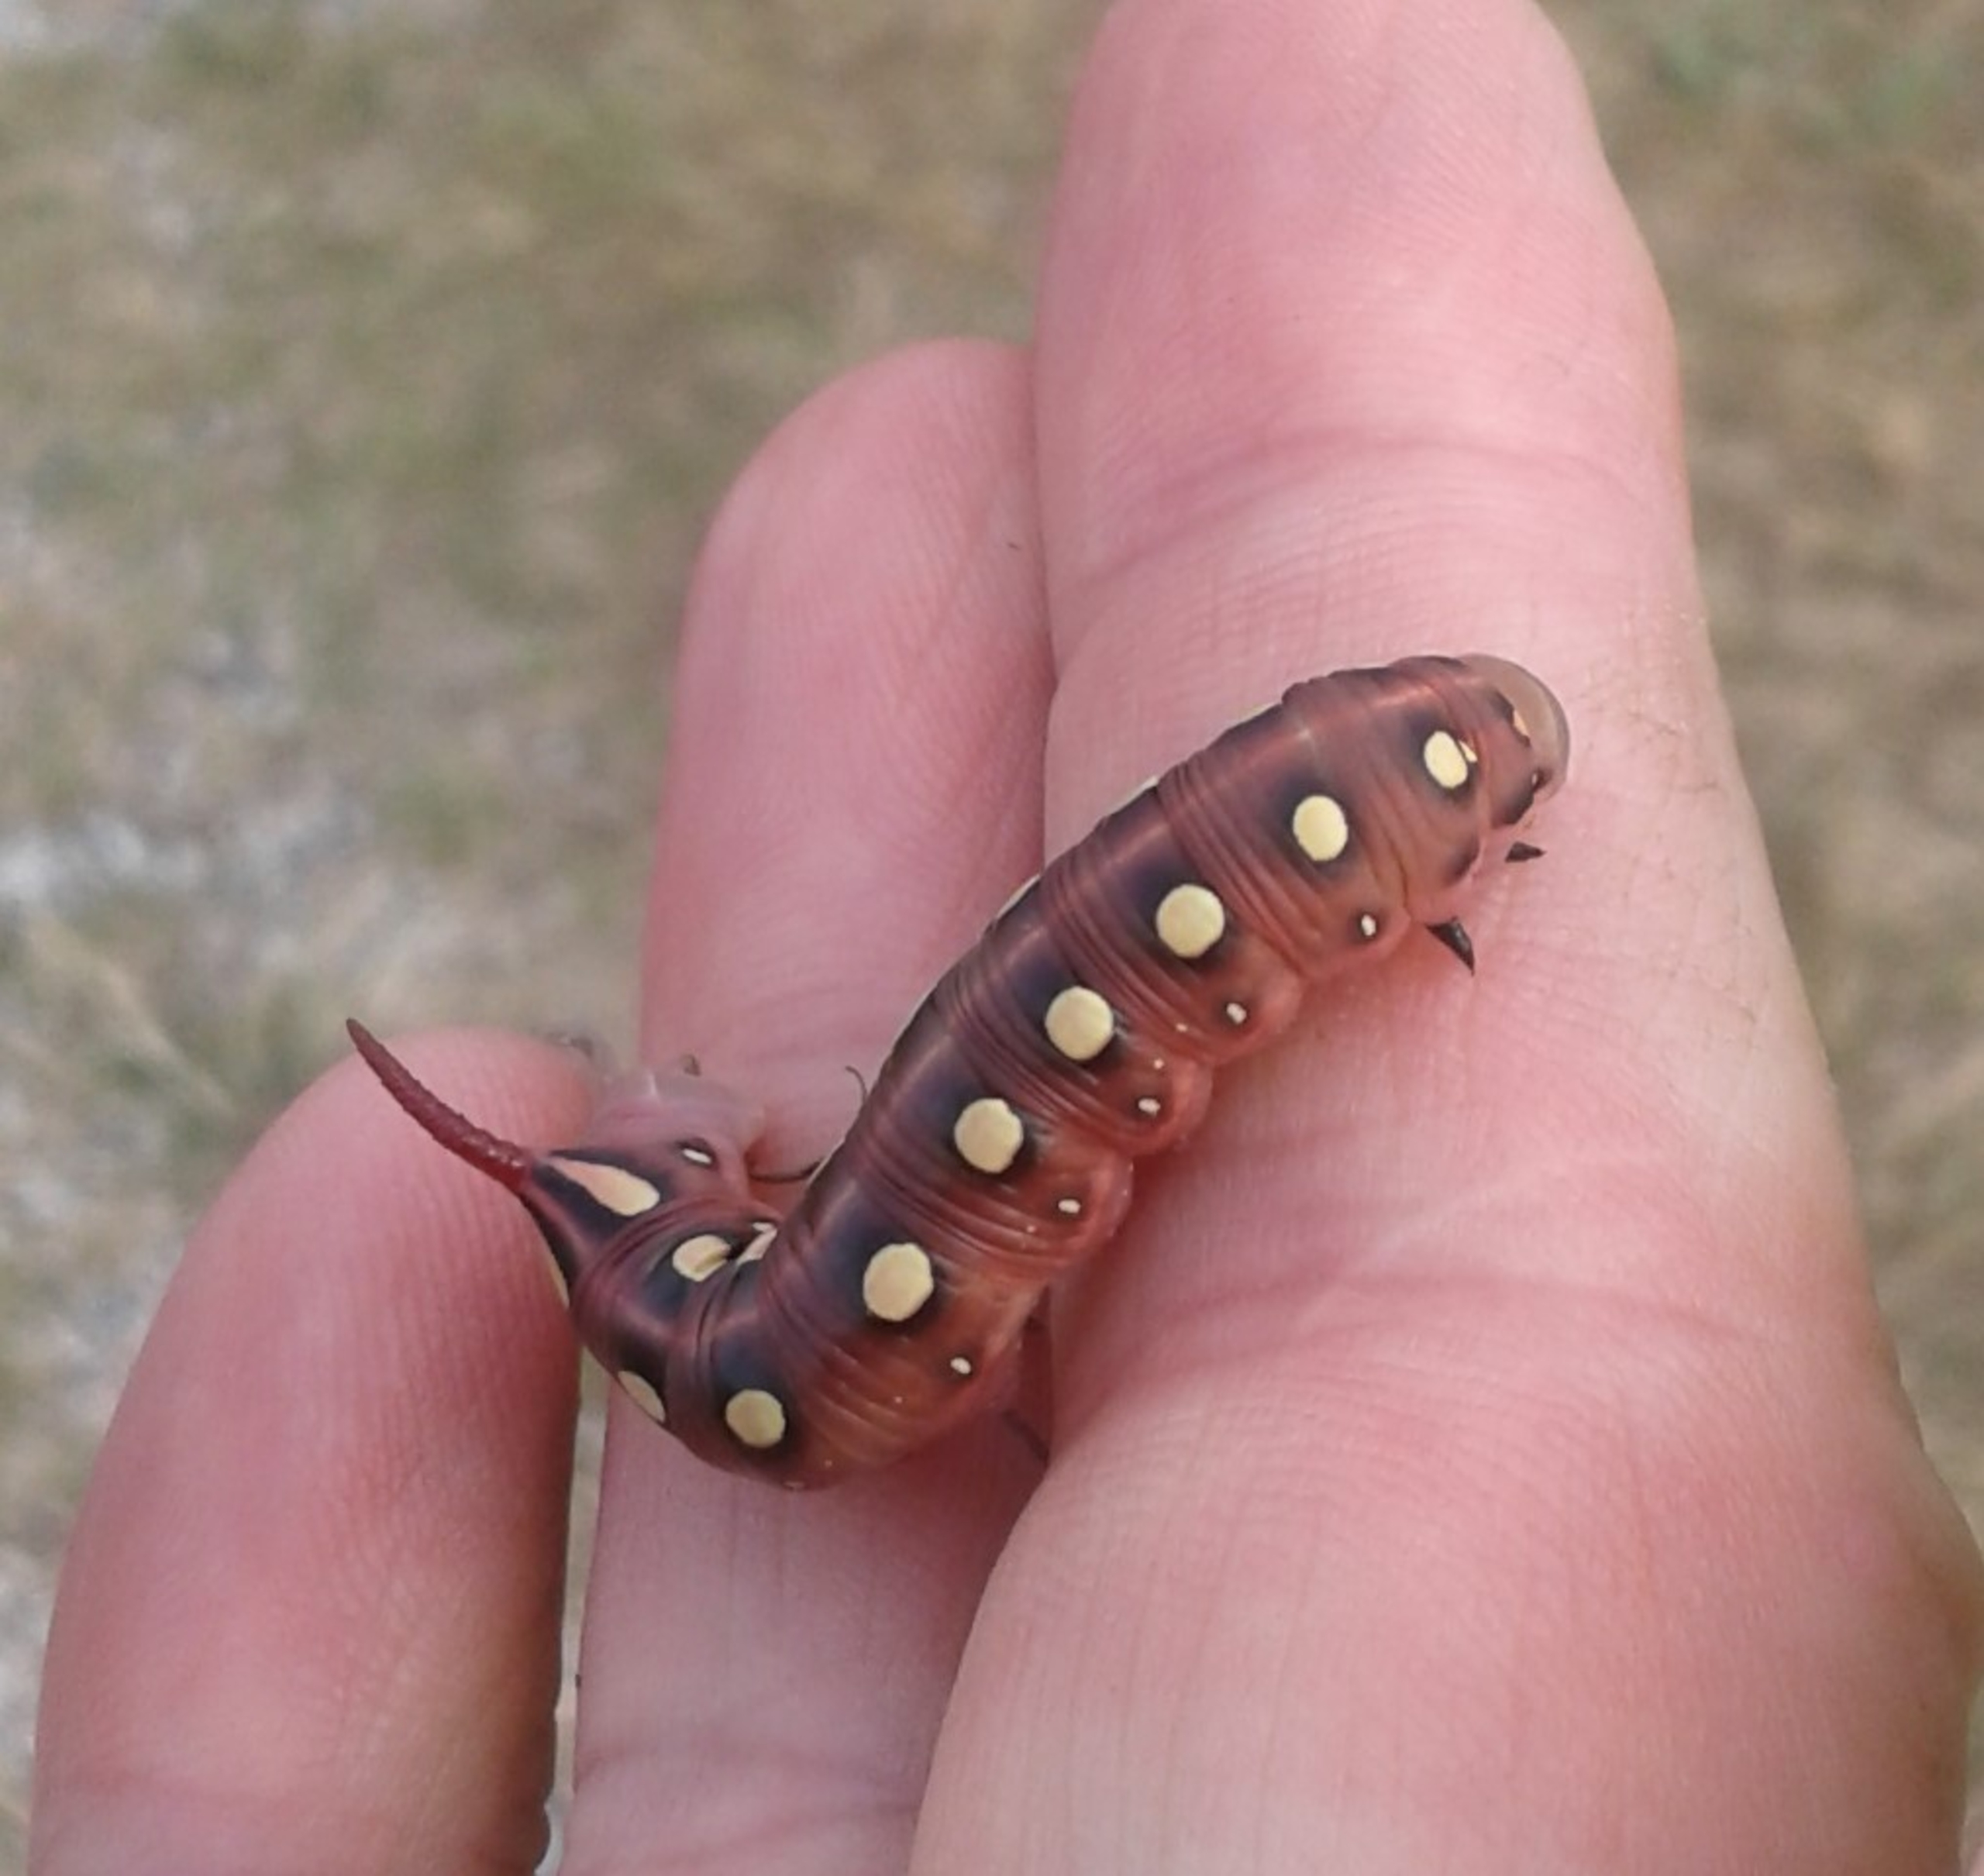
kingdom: Animalia
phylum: Arthropoda
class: Insecta
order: Lepidoptera
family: Sphingidae
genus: Hyles
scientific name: Hyles gallii
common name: Snerresværmer
